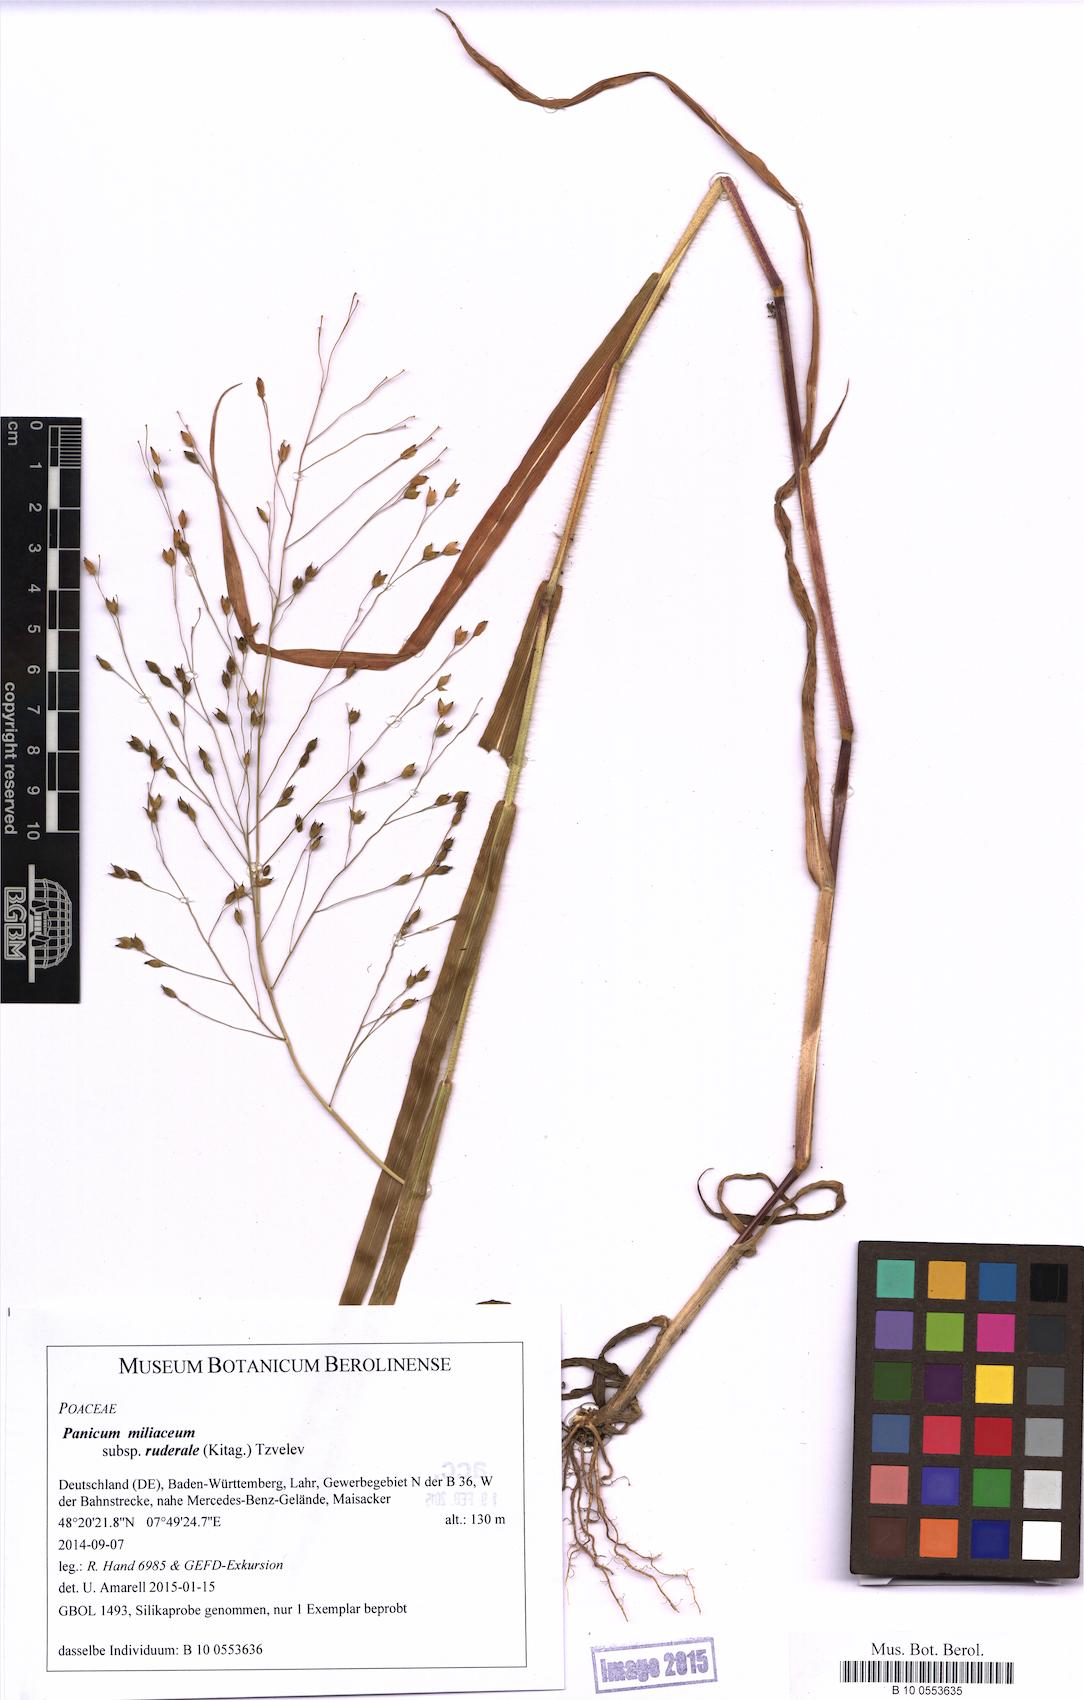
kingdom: Plantae
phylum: Tracheophyta
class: Liliopsida
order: Poales
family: Poaceae
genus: Panicum
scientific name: Panicum miliaceum
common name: Common millet
